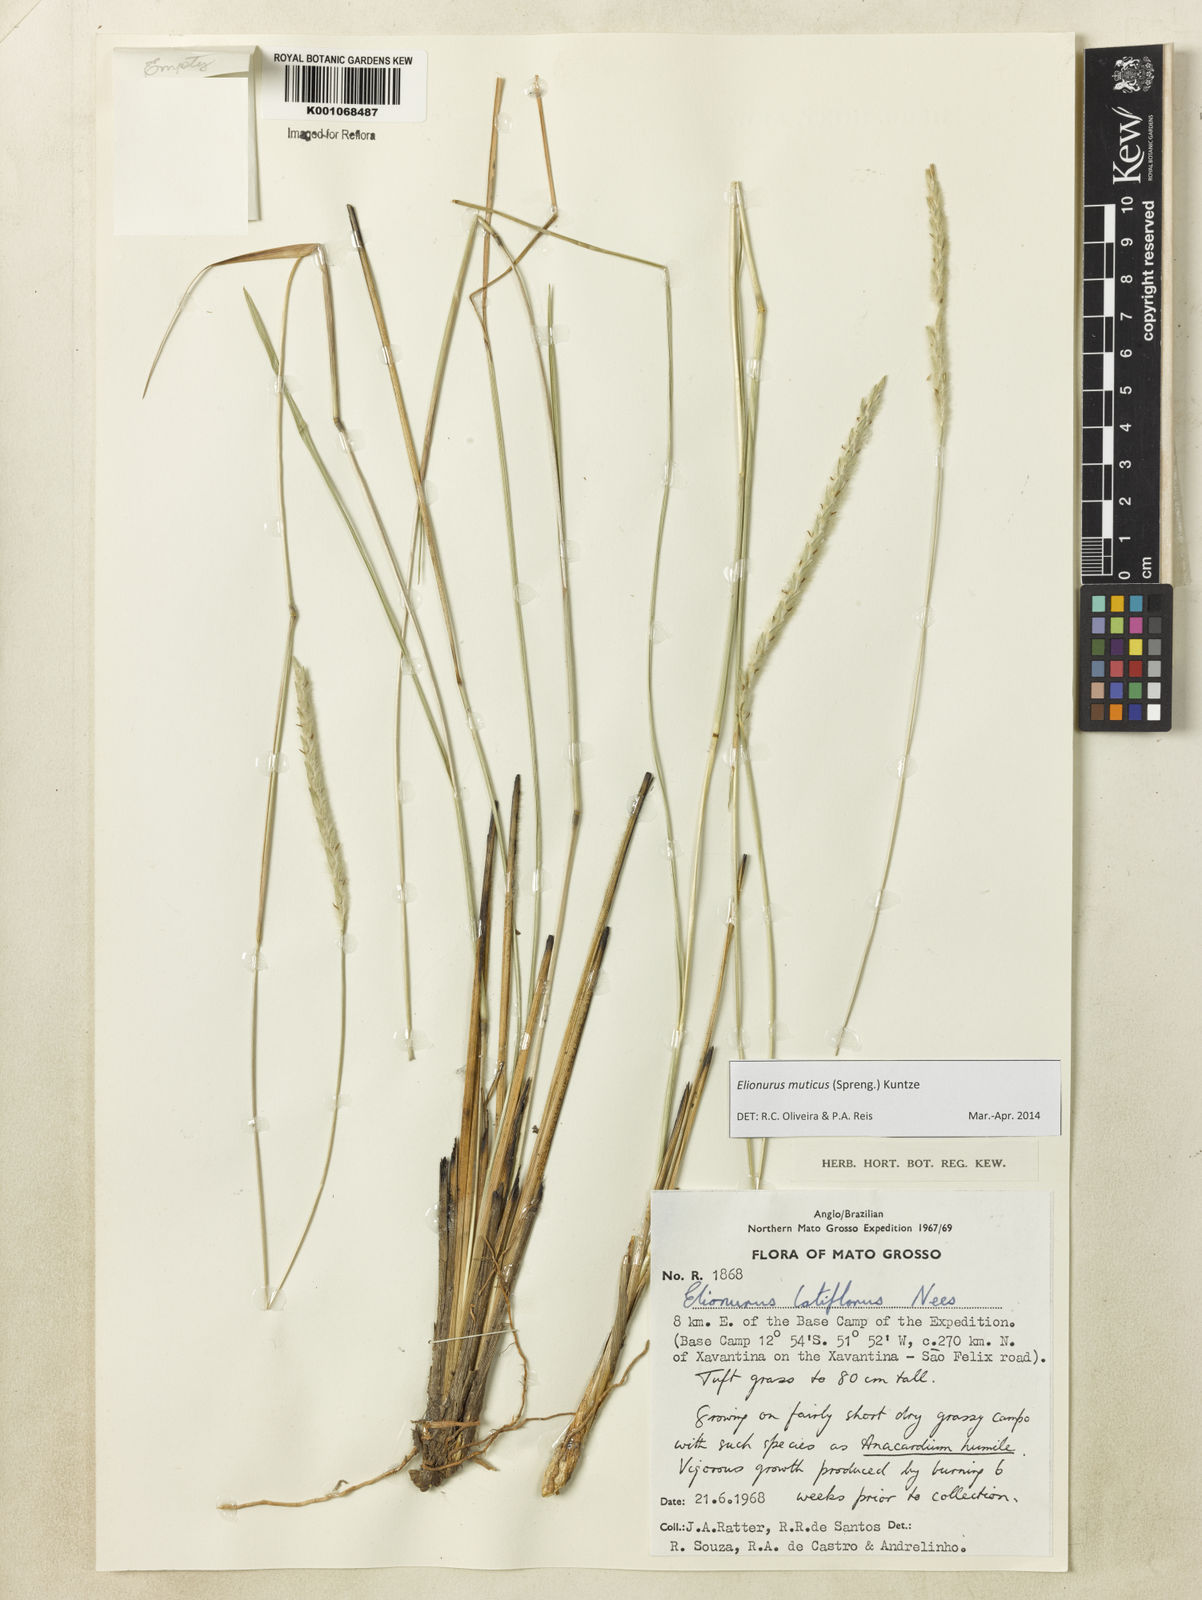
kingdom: Plantae
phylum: Tracheophyta
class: Liliopsida
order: Poales
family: Poaceae
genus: Elionurus
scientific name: Elionurus muticus
